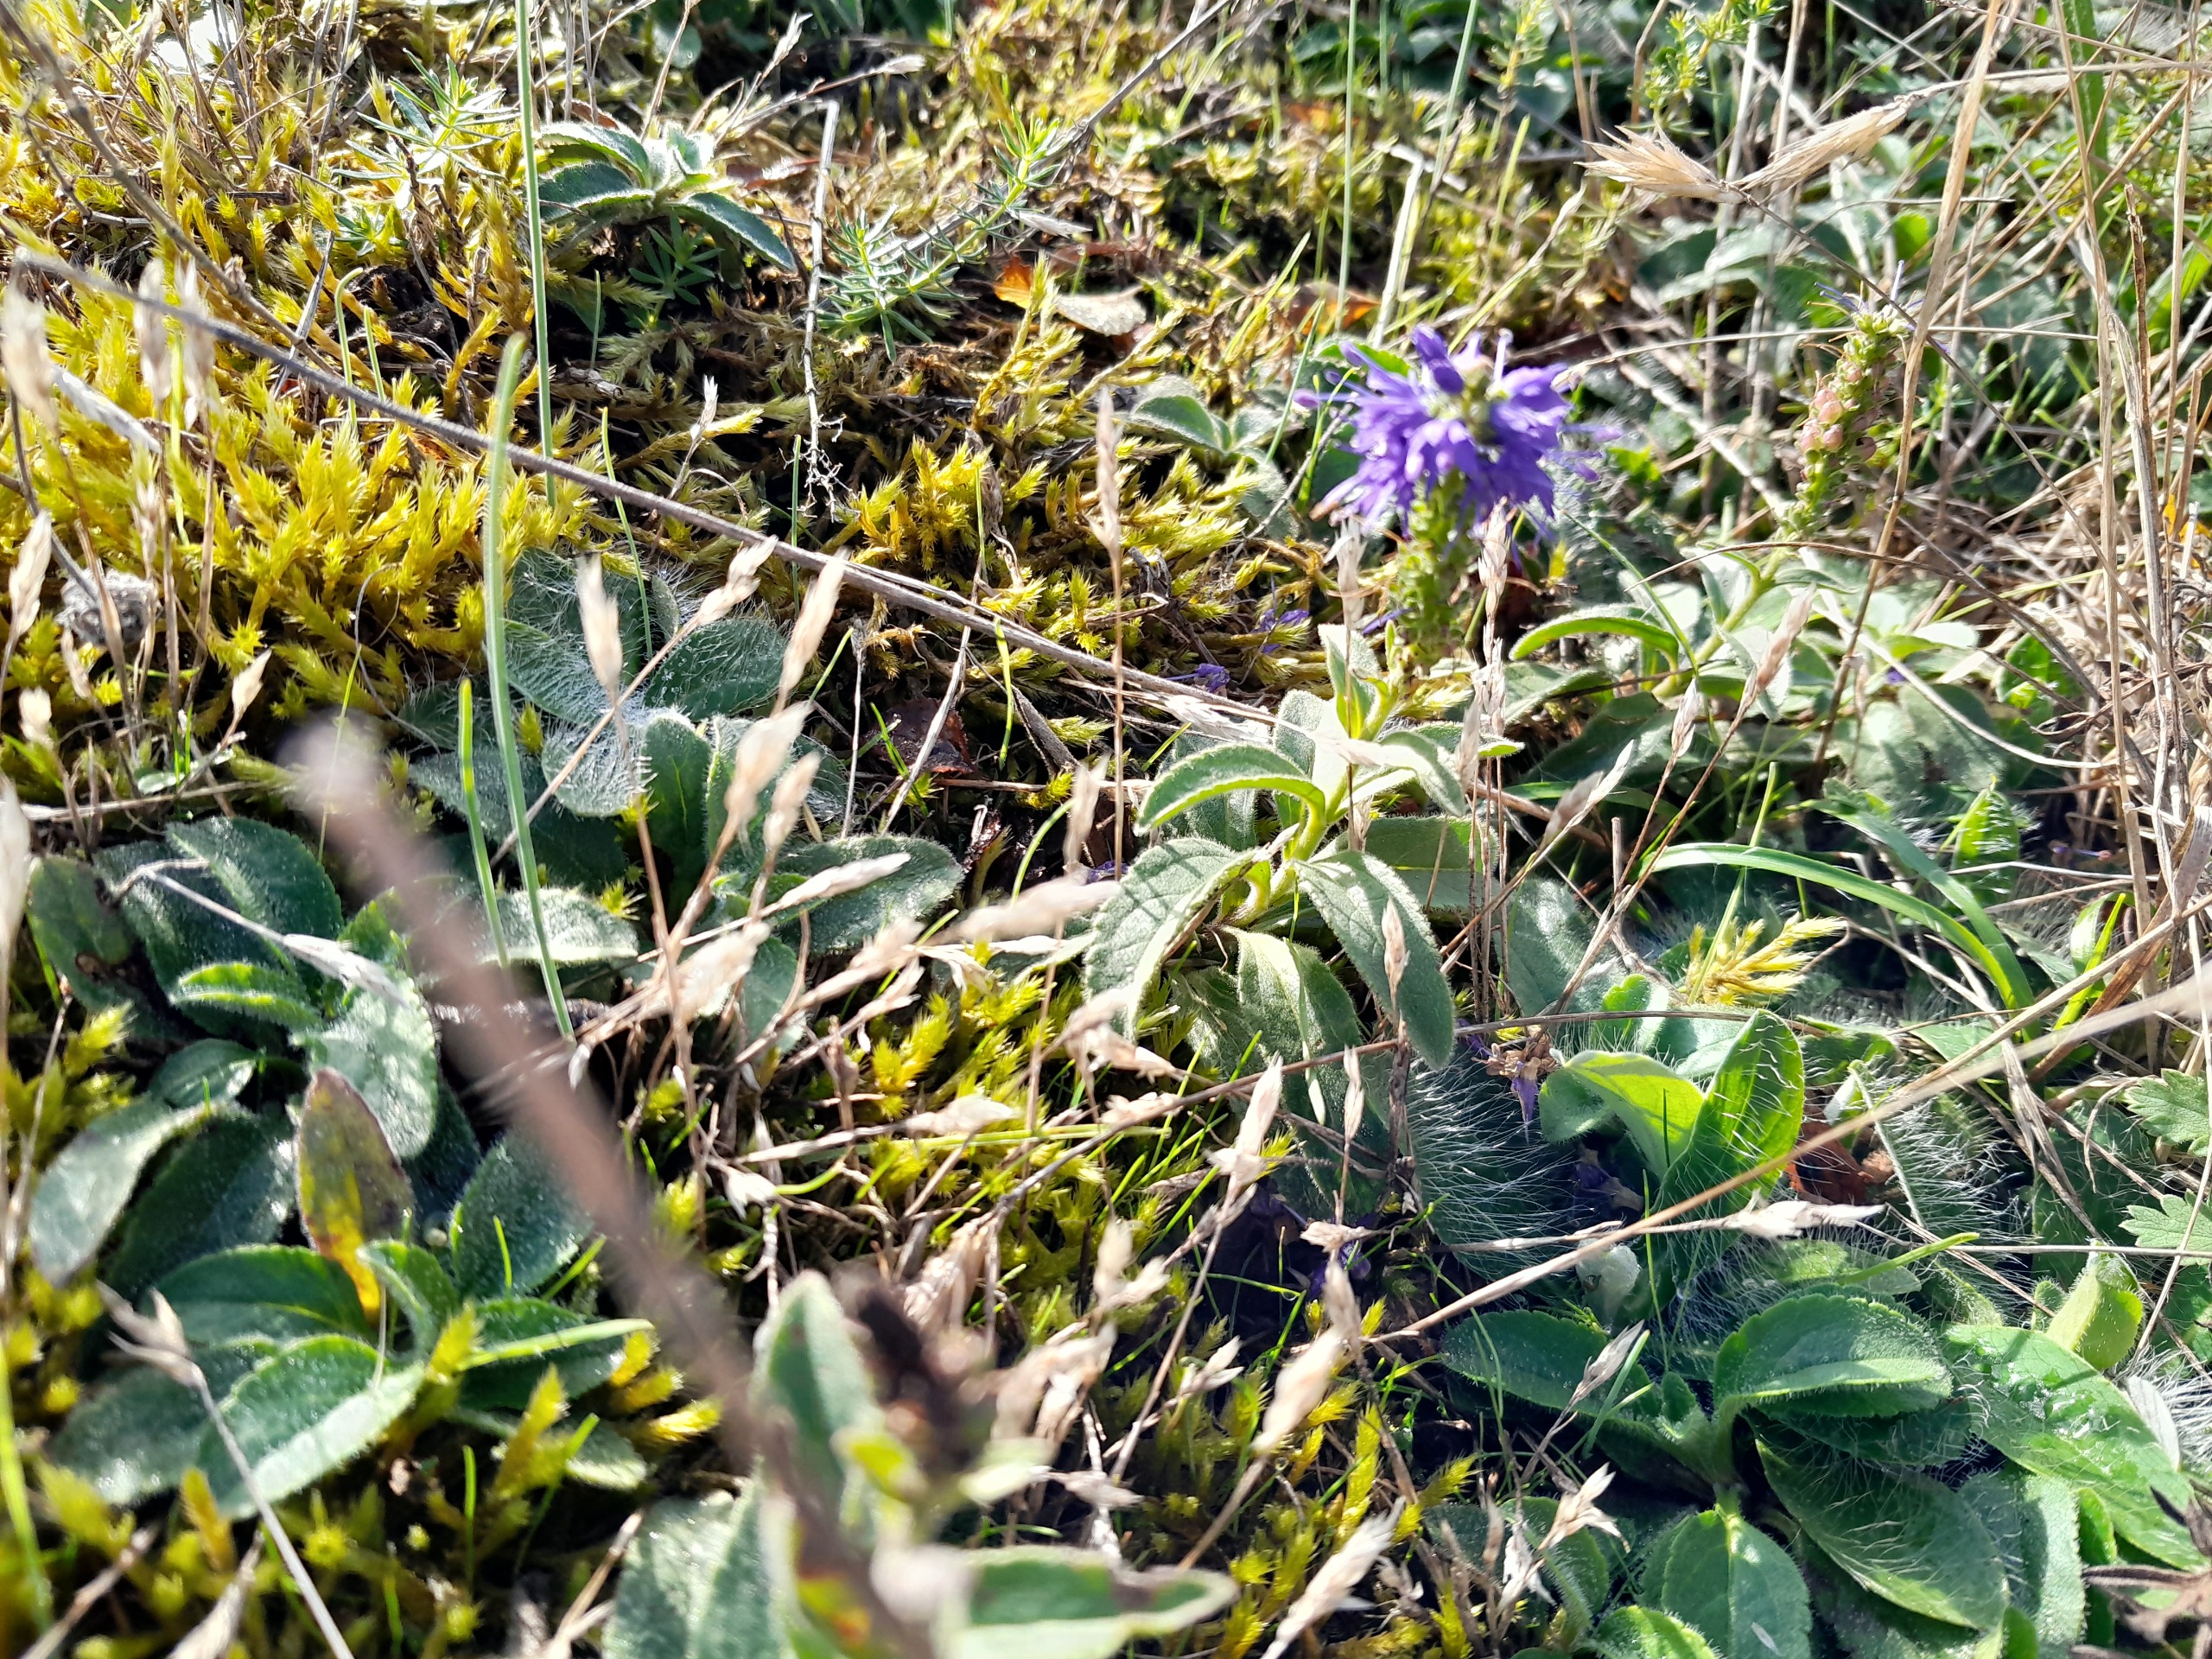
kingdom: Plantae
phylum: Tracheophyta
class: Magnoliopsida
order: Lamiales
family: Plantaginaceae
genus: Veronica
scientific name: Veronica spicata
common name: Aks-ærenpris
